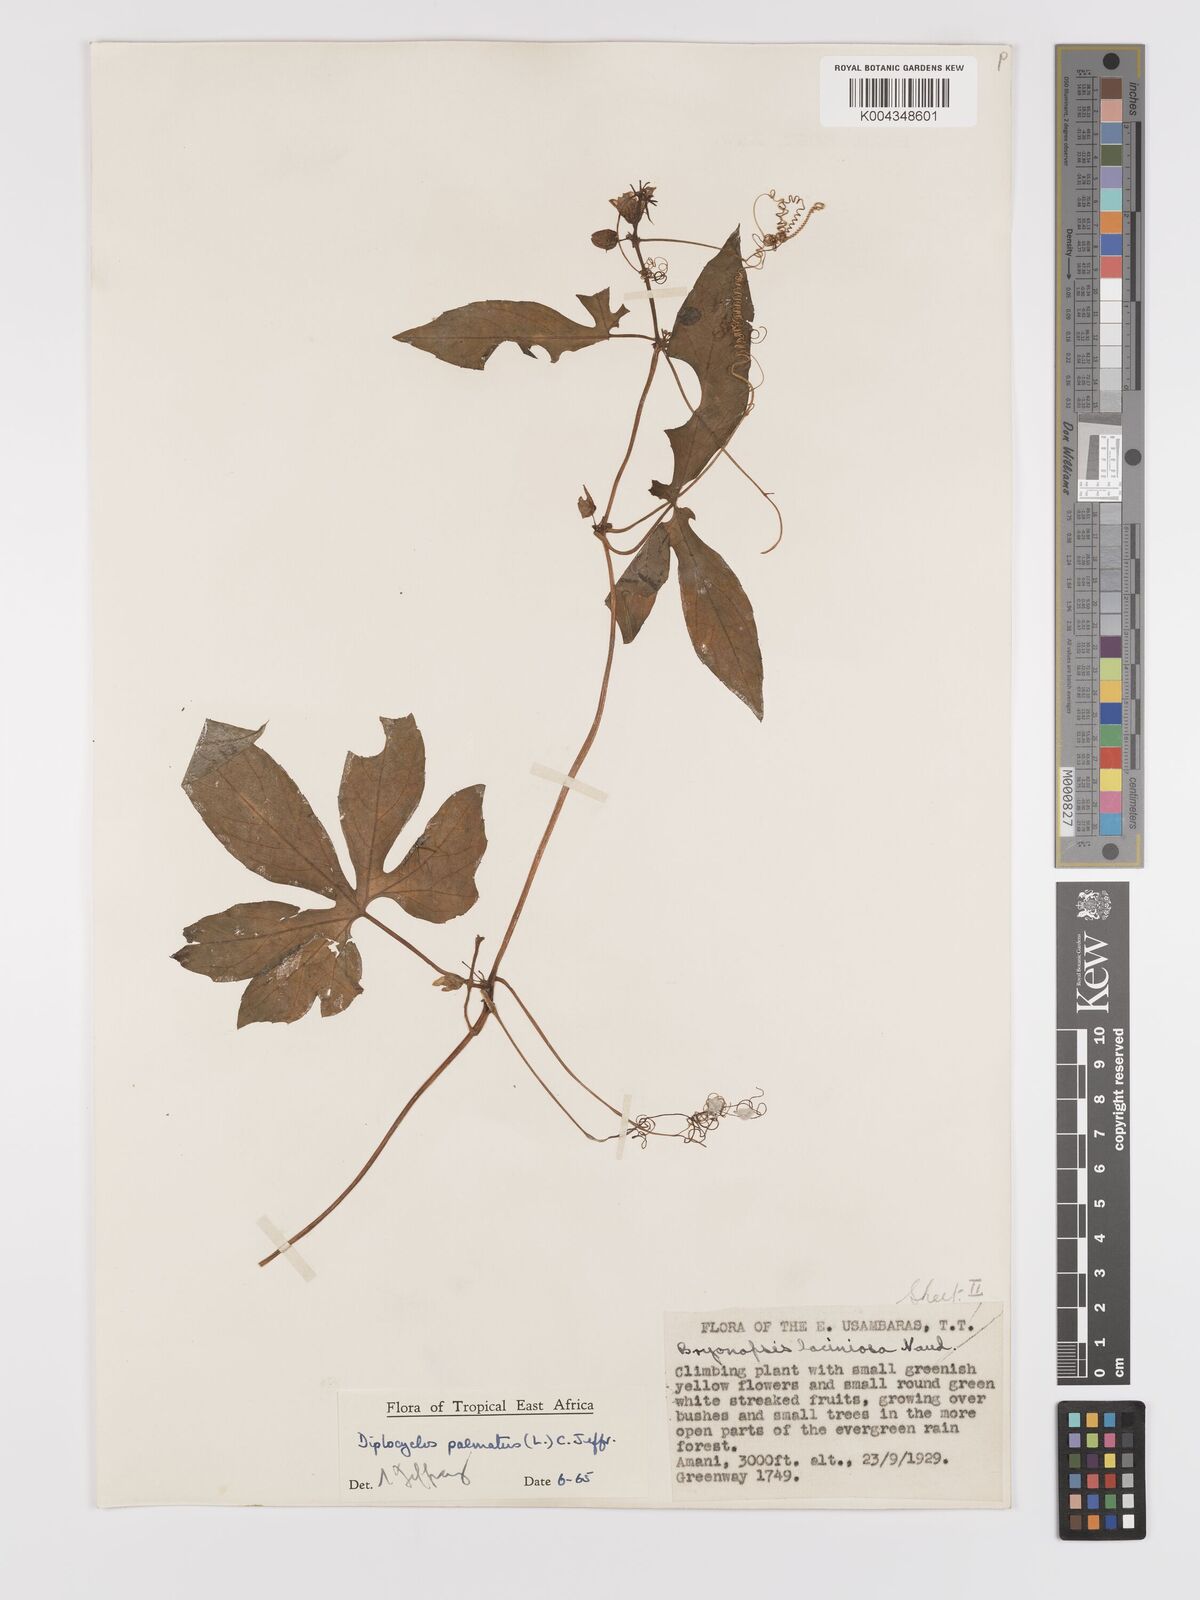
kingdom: Plantae
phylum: Tracheophyta
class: Magnoliopsida
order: Cucurbitales
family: Cucurbitaceae
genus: Diplocyclos
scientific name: Diplocyclos palmatus
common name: Striped-cucumber
